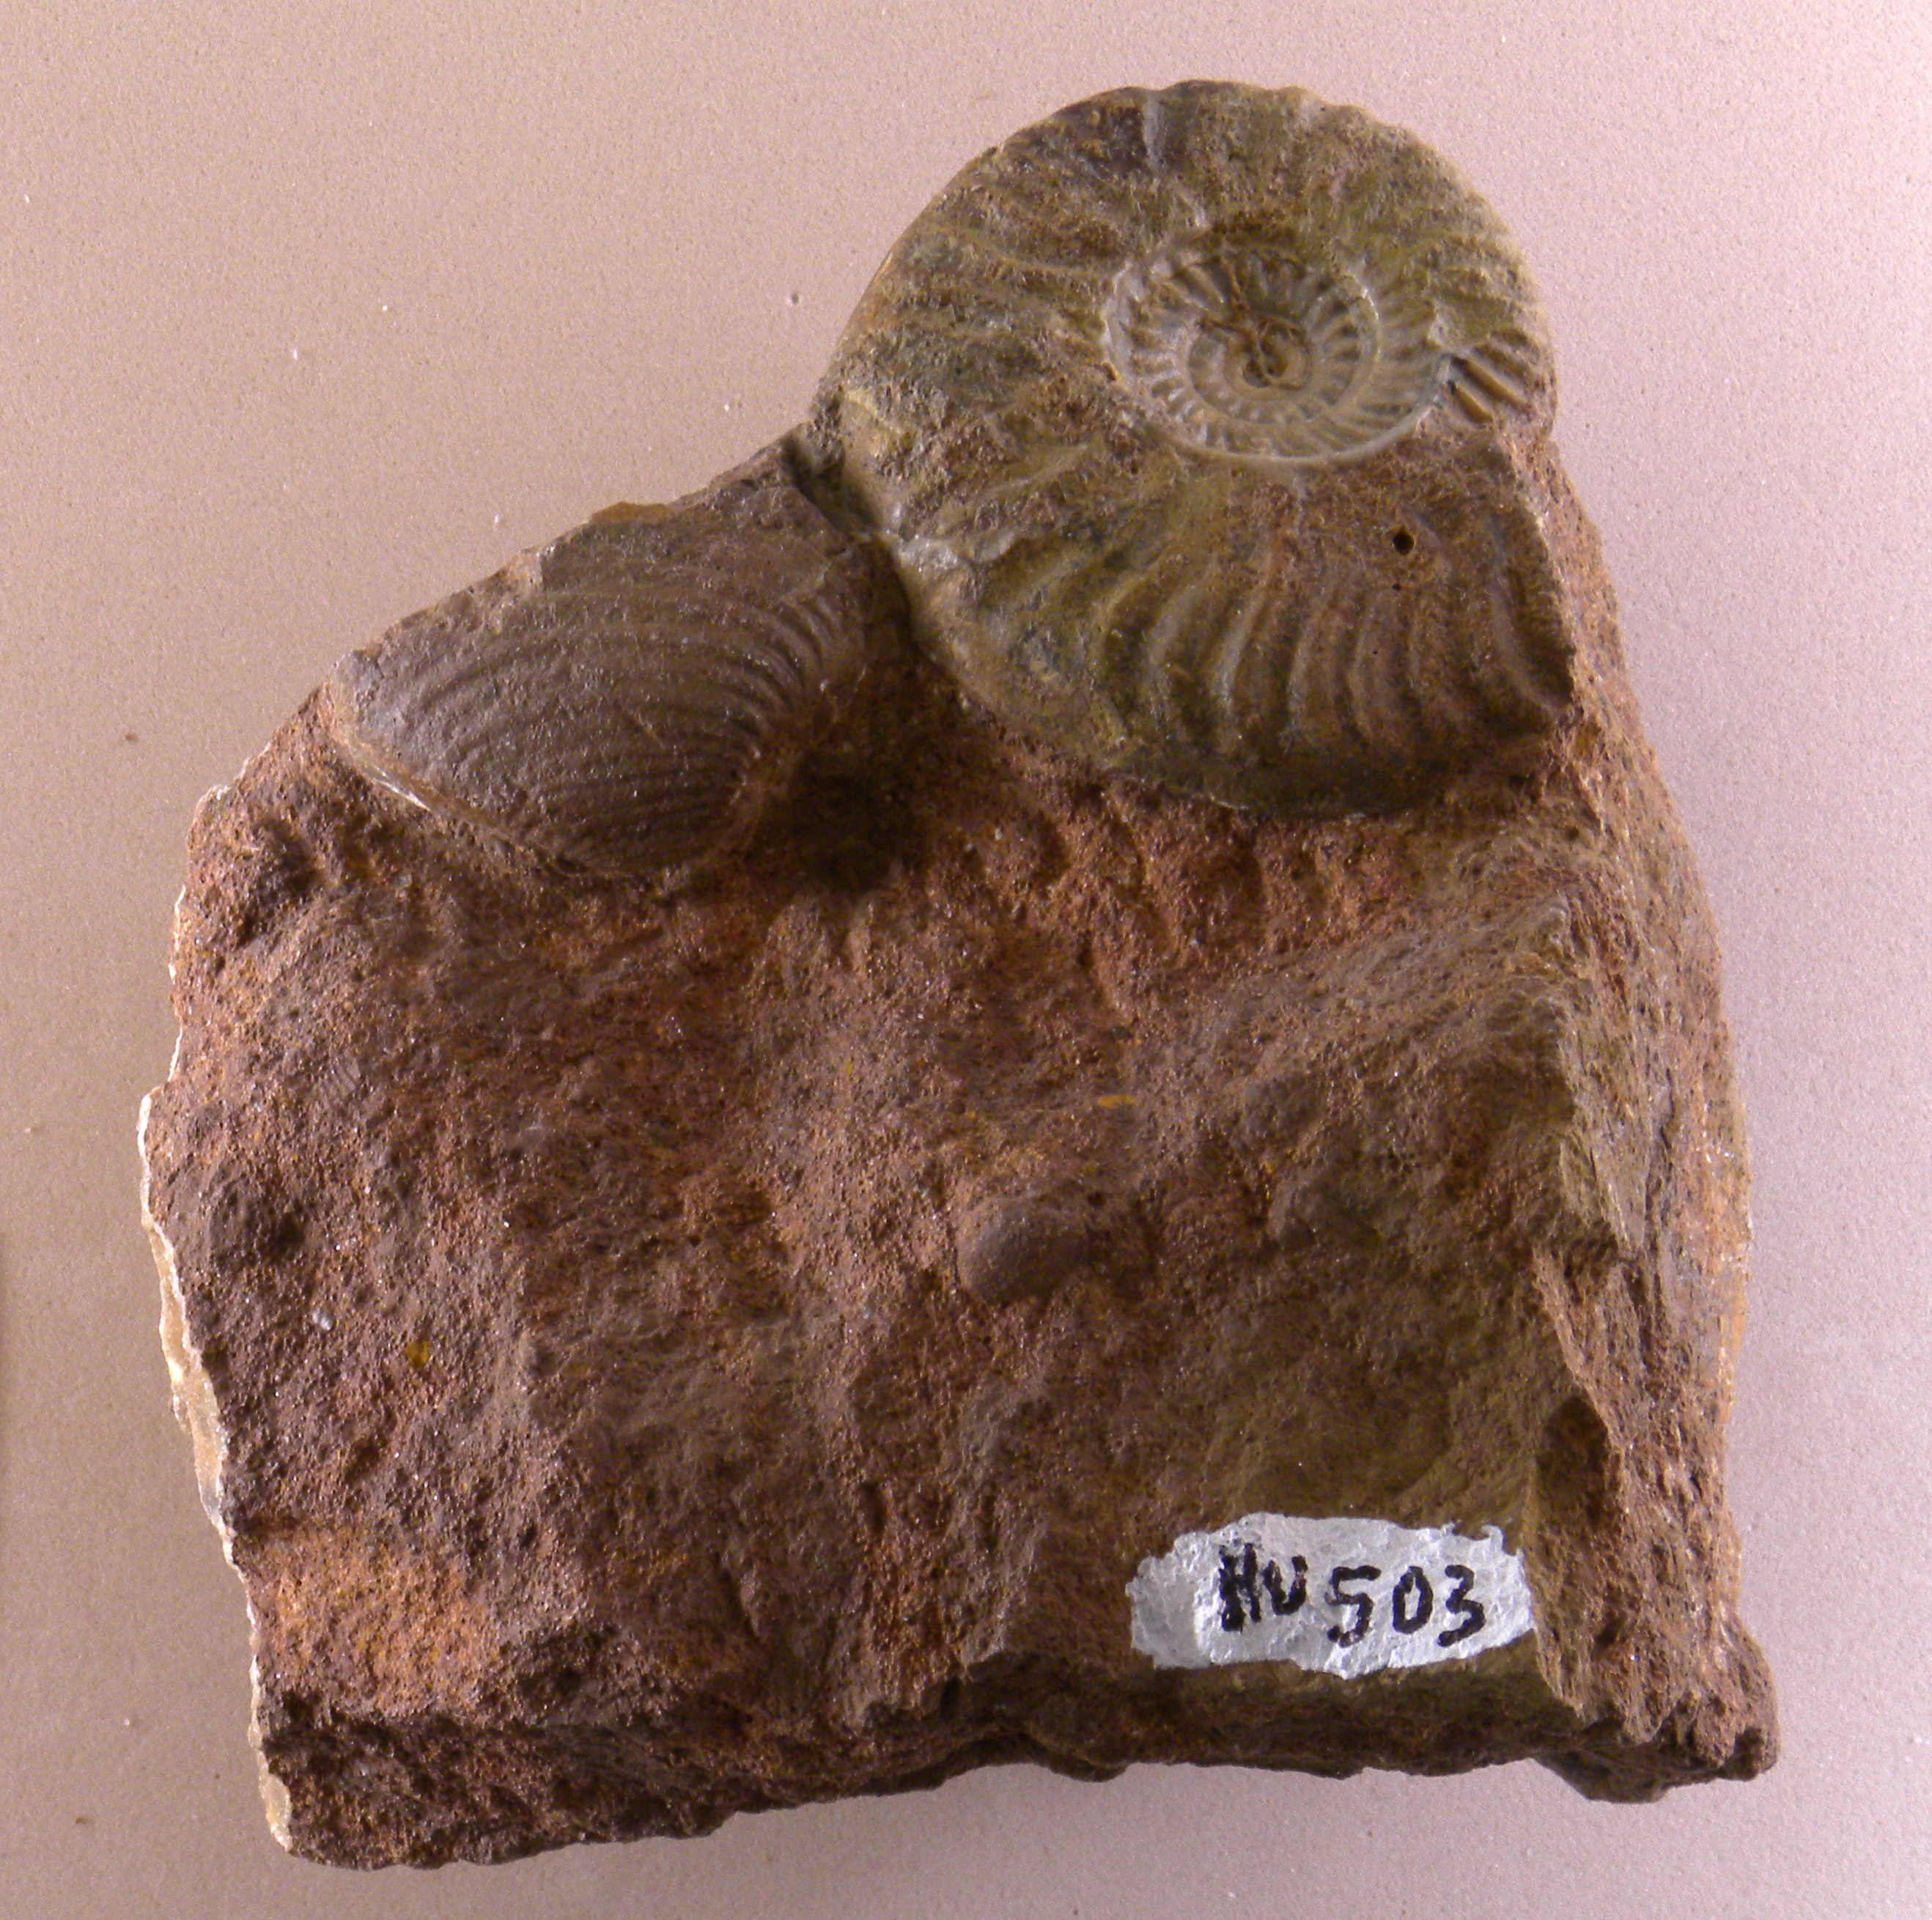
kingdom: Animalia
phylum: Mollusca
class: Cephalopoda
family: Graphoceratidae
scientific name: Graphoceratidae
